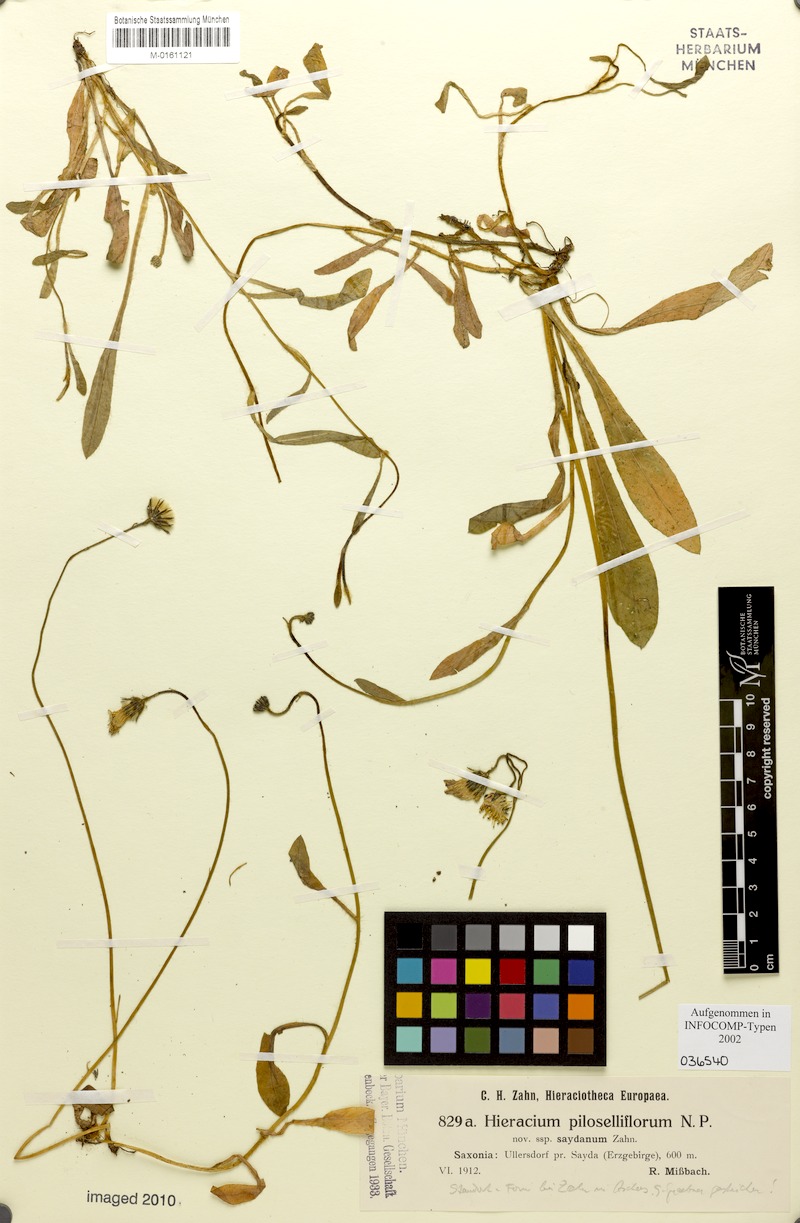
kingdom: Plantae
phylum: Tracheophyta
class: Magnoliopsida
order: Asterales
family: Asteraceae
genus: Pilosella
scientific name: Pilosella piloselliflora
